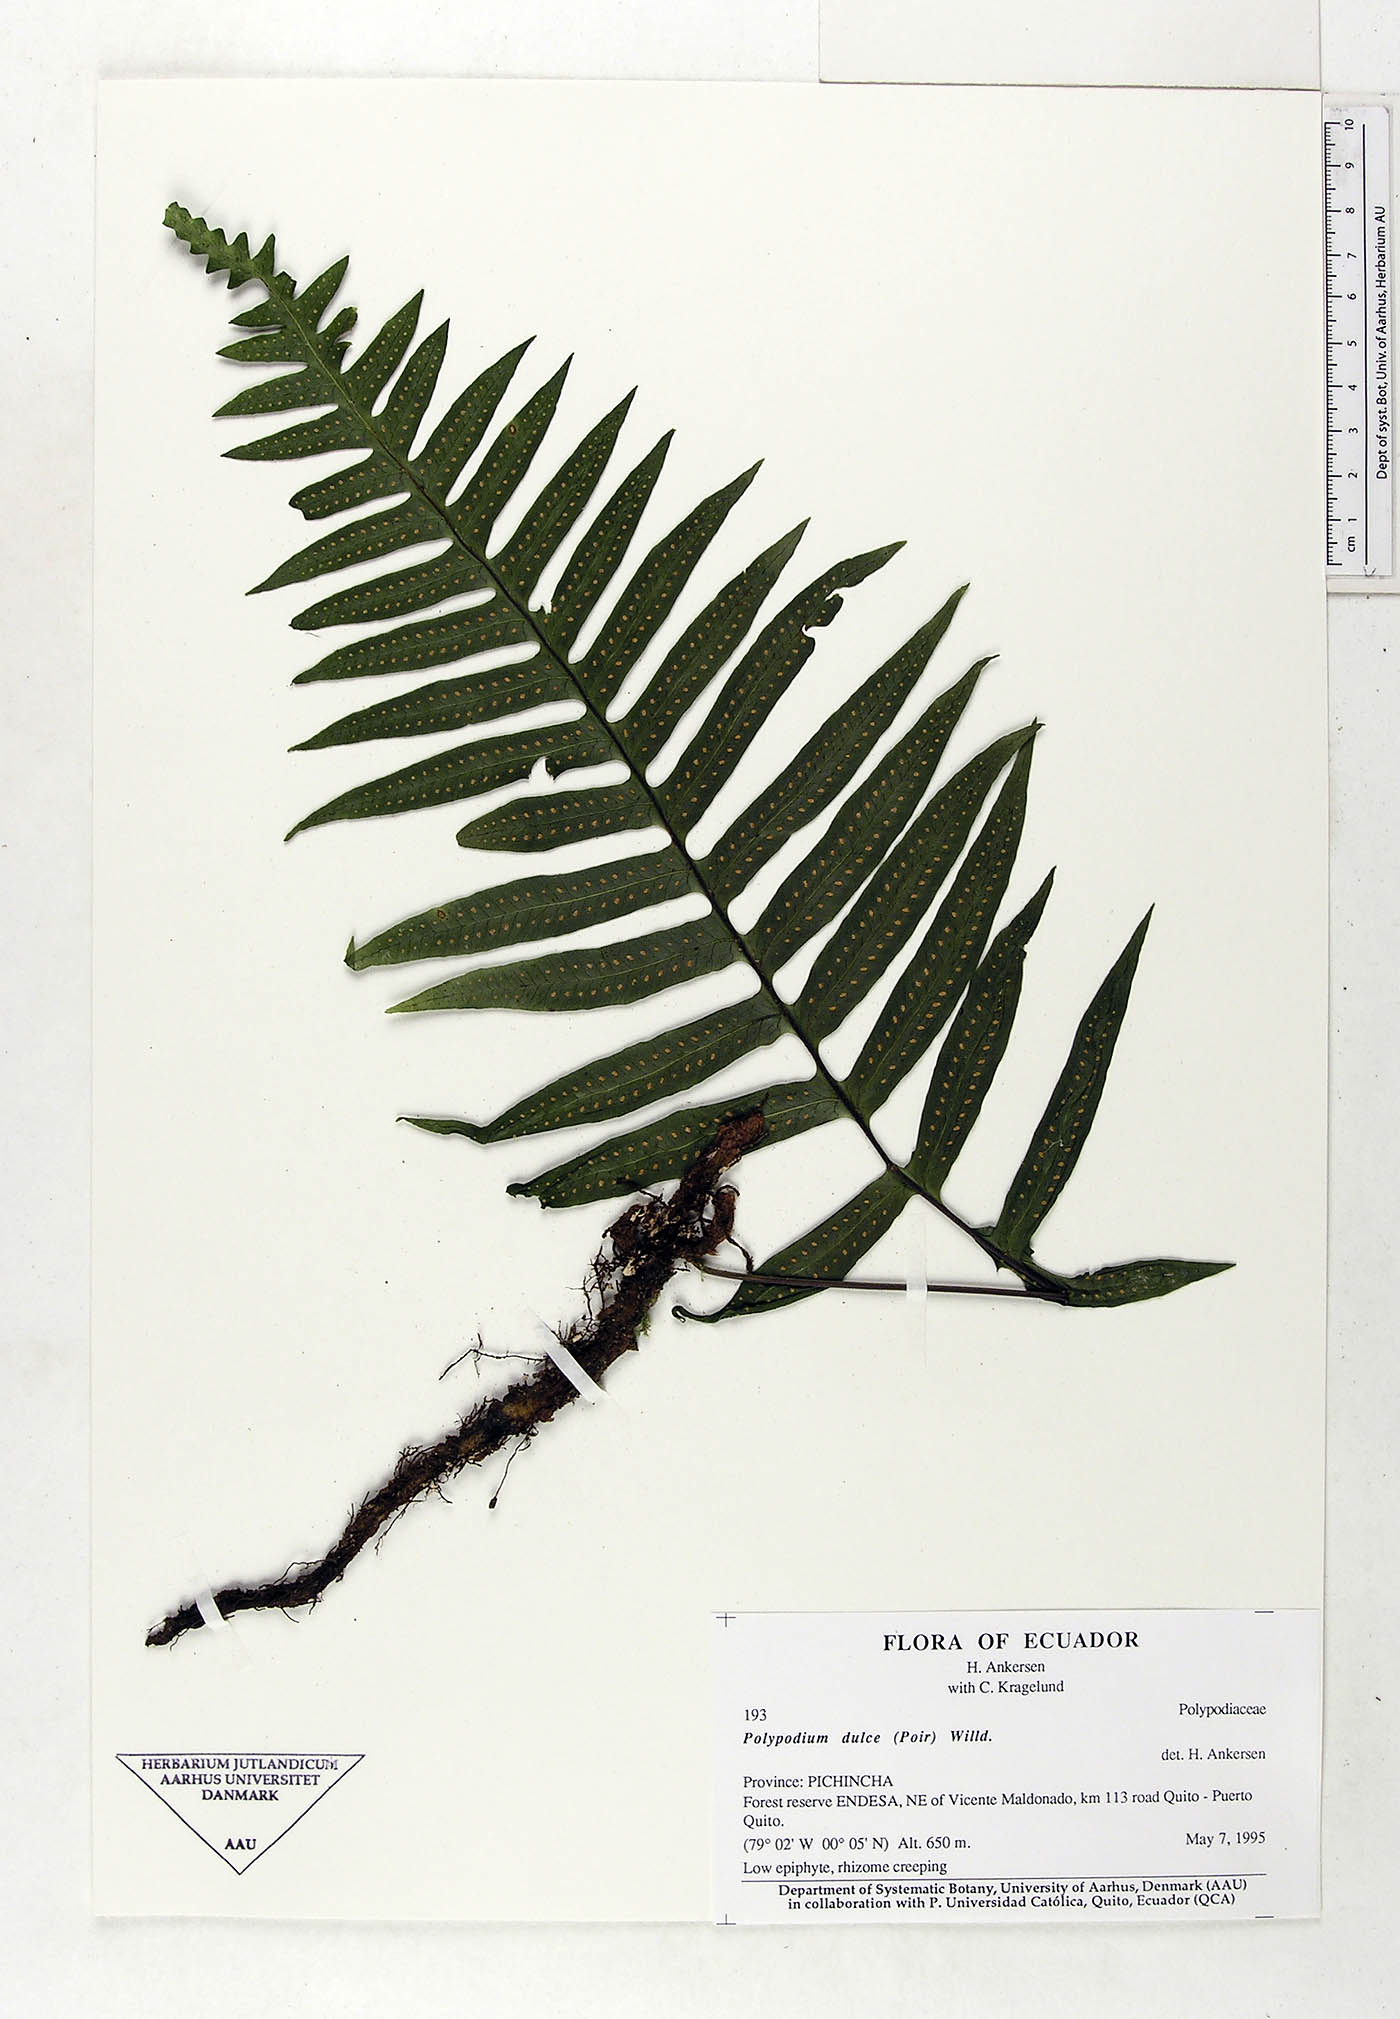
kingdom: Plantae
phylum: Tracheophyta
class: Polypodiopsida
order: Polypodiales
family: Polypodiaceae
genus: Pecluma
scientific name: Pecluma dulcis
